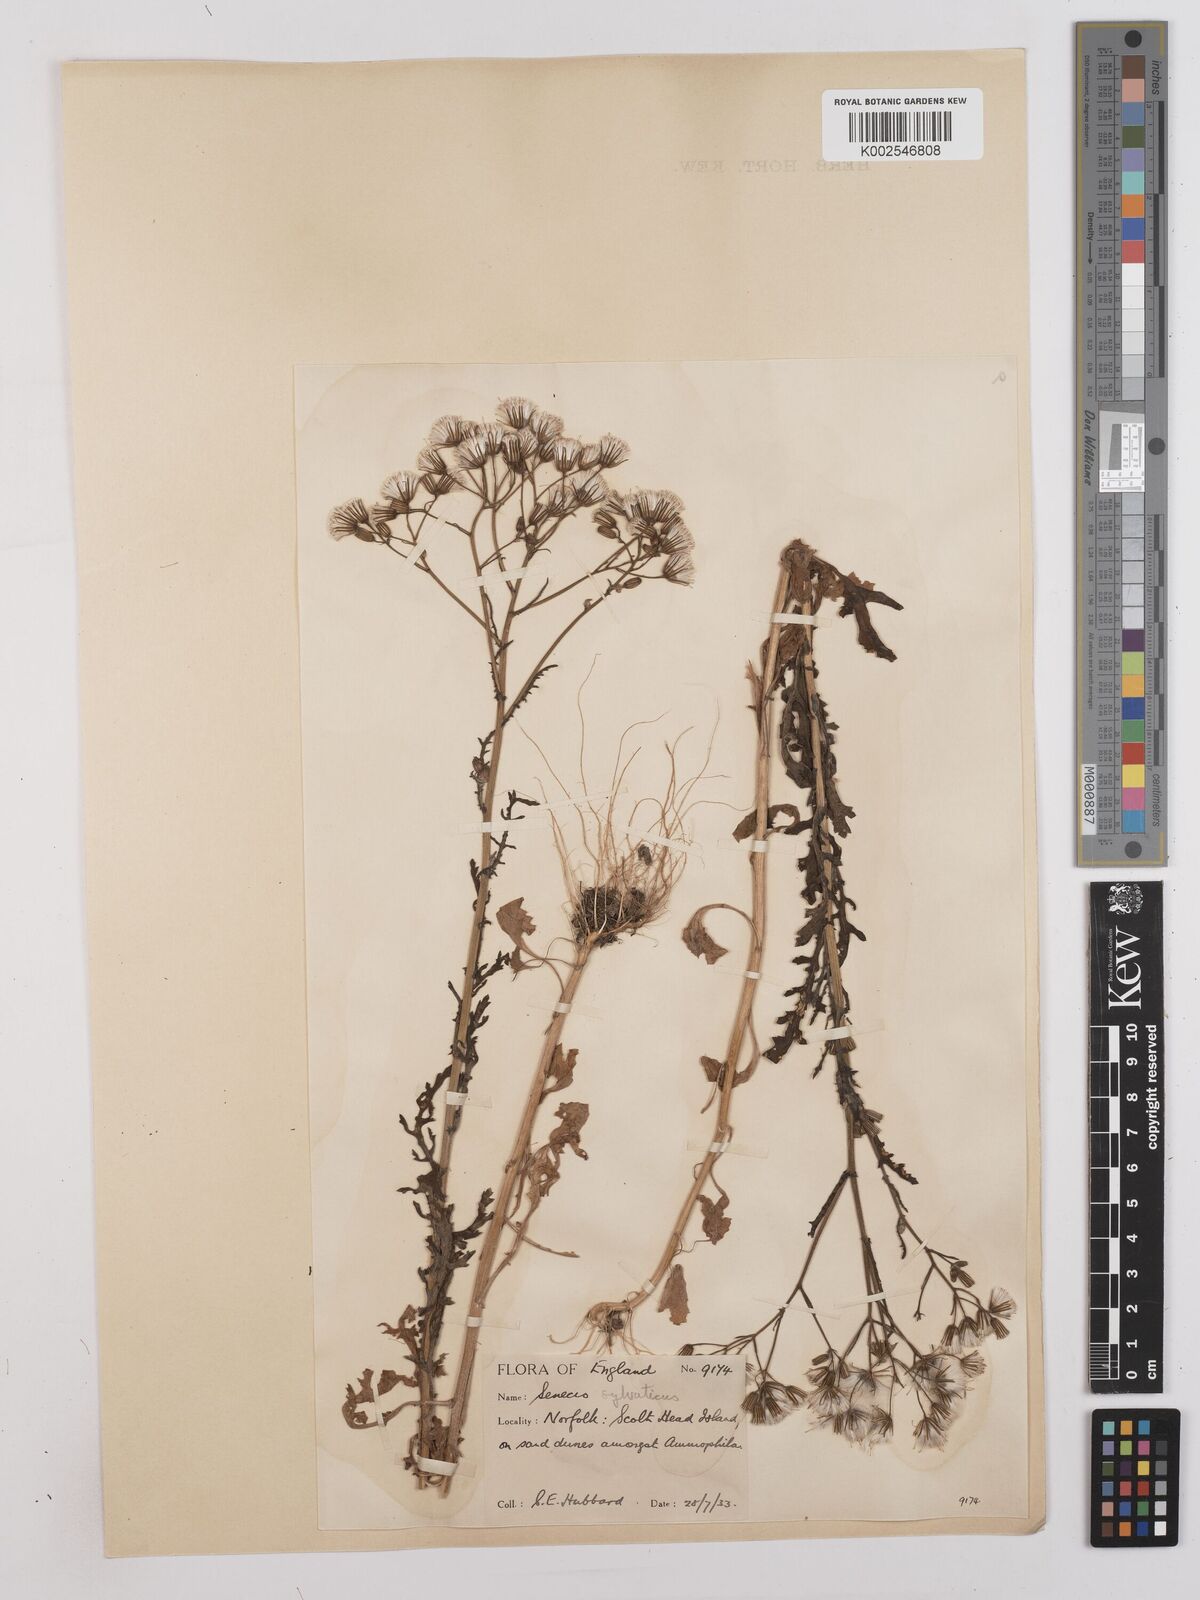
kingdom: Plantae
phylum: Tracheophyta
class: Magnoliopsida
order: Asterales
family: Asteraceae
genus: Senecio
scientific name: Senecio sylvaticus
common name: Woodland ragwort
